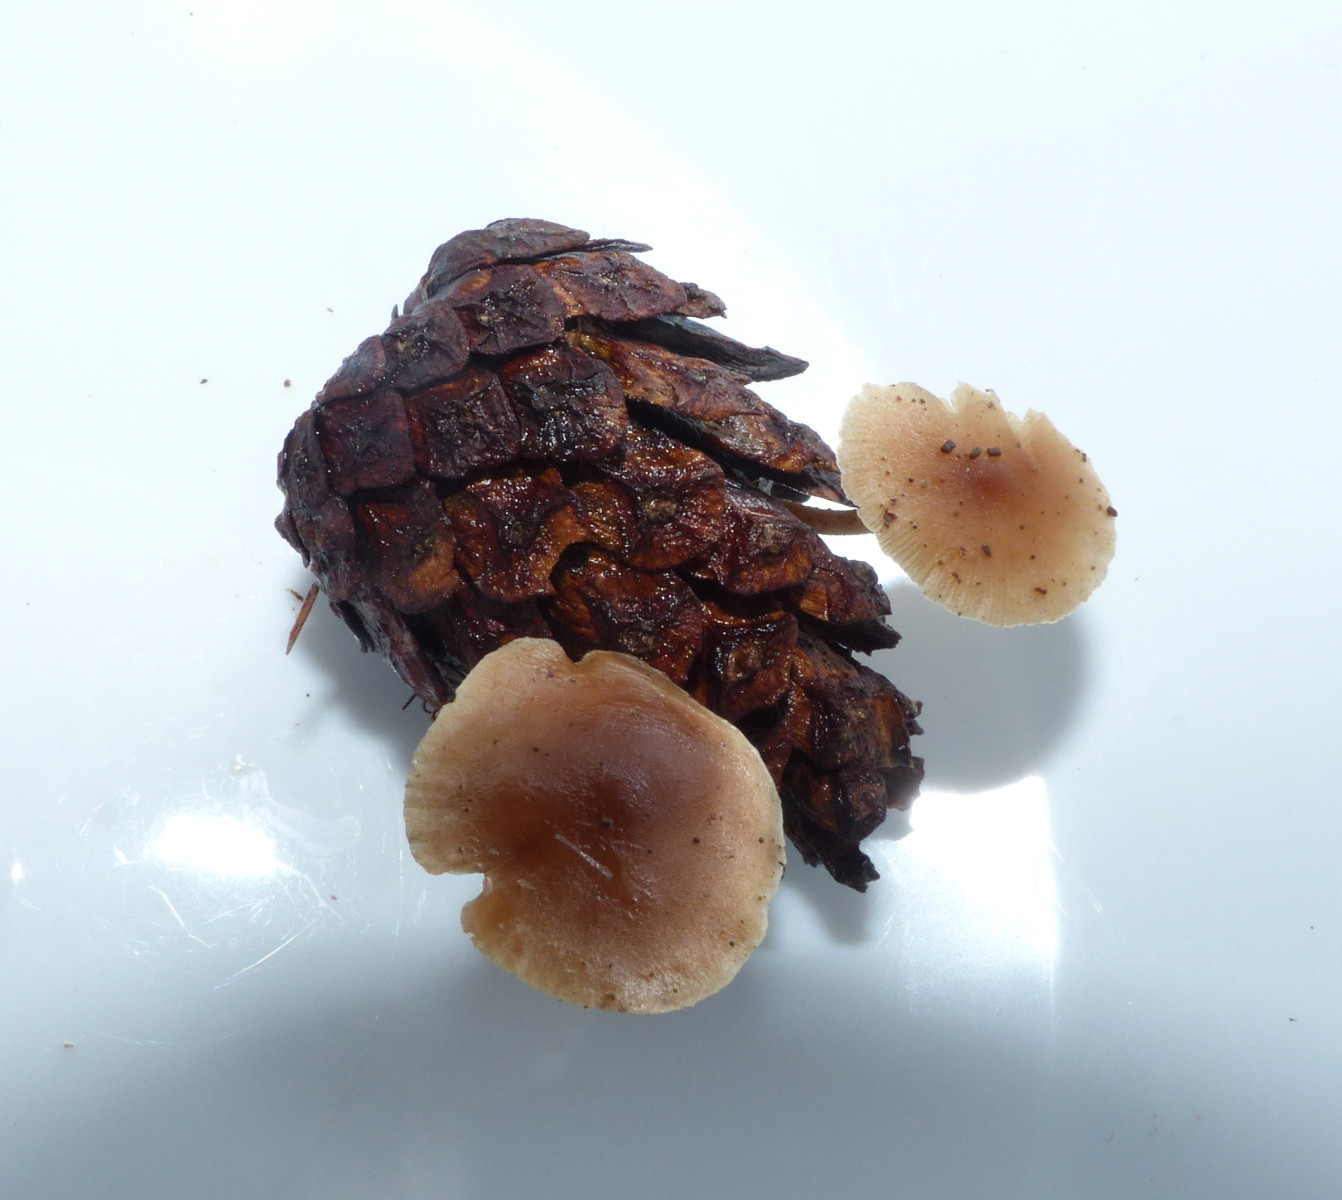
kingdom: Fungi
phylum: Basidiomycota
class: Agaricomycetes
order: Agaricales
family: Marasmiaceae
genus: Baeospora
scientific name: Baeospora myosura
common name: koglebruskhat
